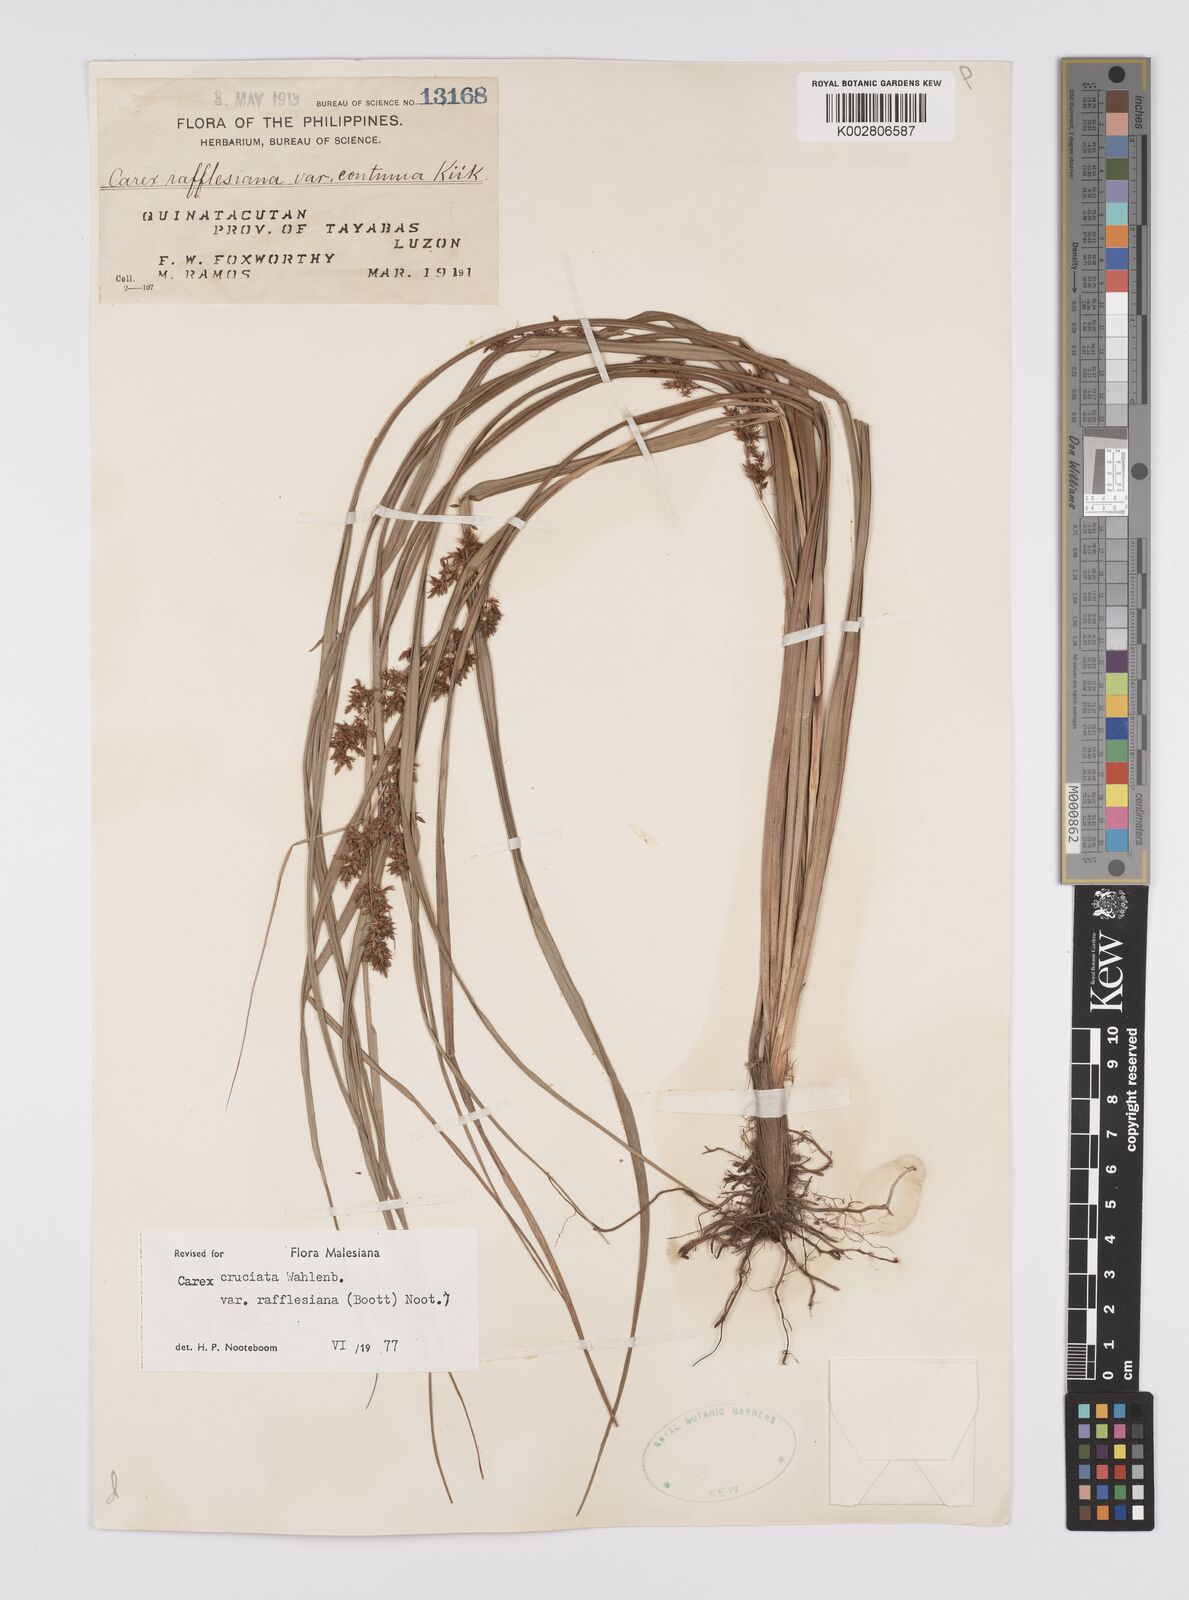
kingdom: Plantae
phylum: Tracheophyta
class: Liliopsida
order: Poales
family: Cyperaceae
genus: Carex
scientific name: Carex rafflesiana
